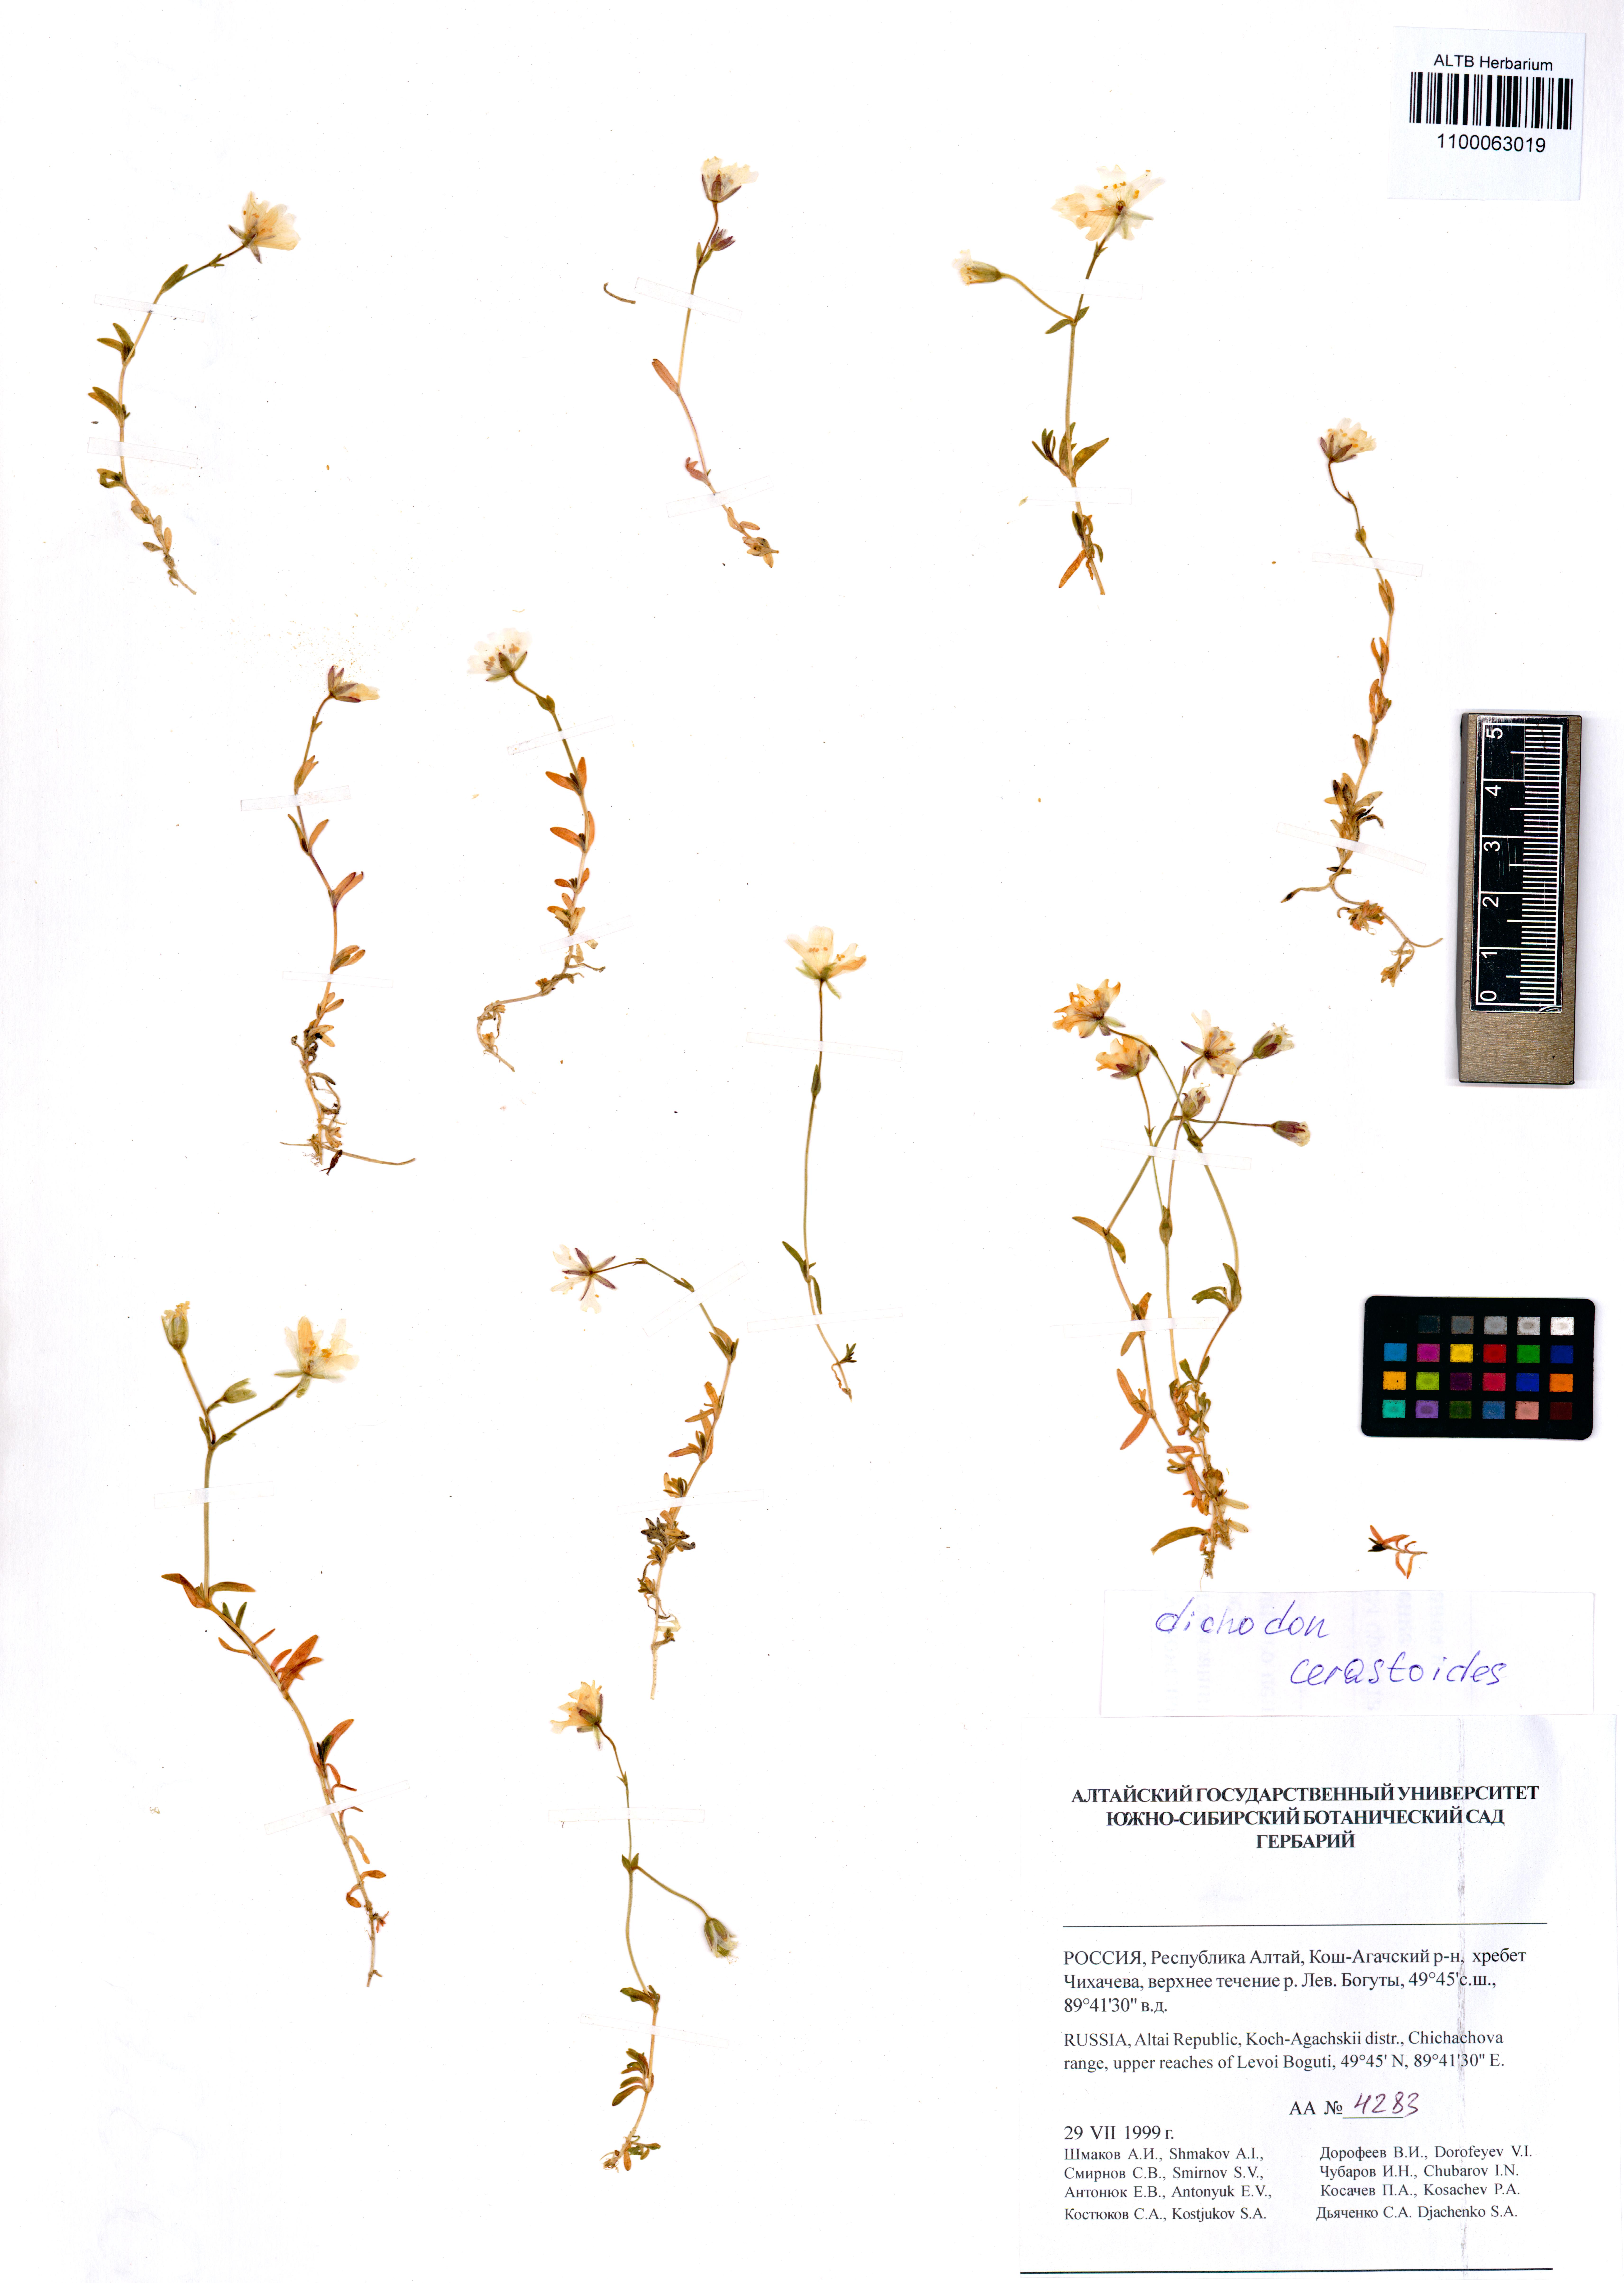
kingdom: Plantae
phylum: Tracheophyta
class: Magnoliopsida
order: Caryophyllales
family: Caryophyllaceae
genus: Dichodon
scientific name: Dichodon cerastoides
